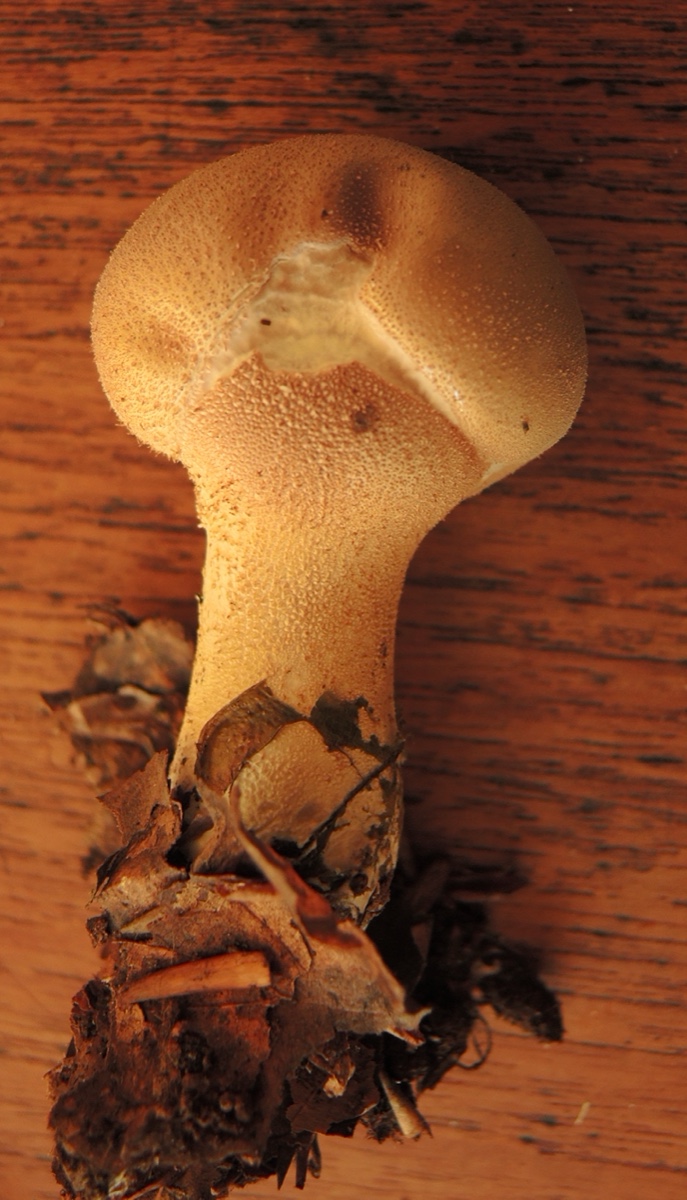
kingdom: Fungi
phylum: Basidiomycota
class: Agaricomycetes
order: Agaricales
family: Agaricaceae
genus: Lycoperdon
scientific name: Lycoperdon
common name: støvbold
